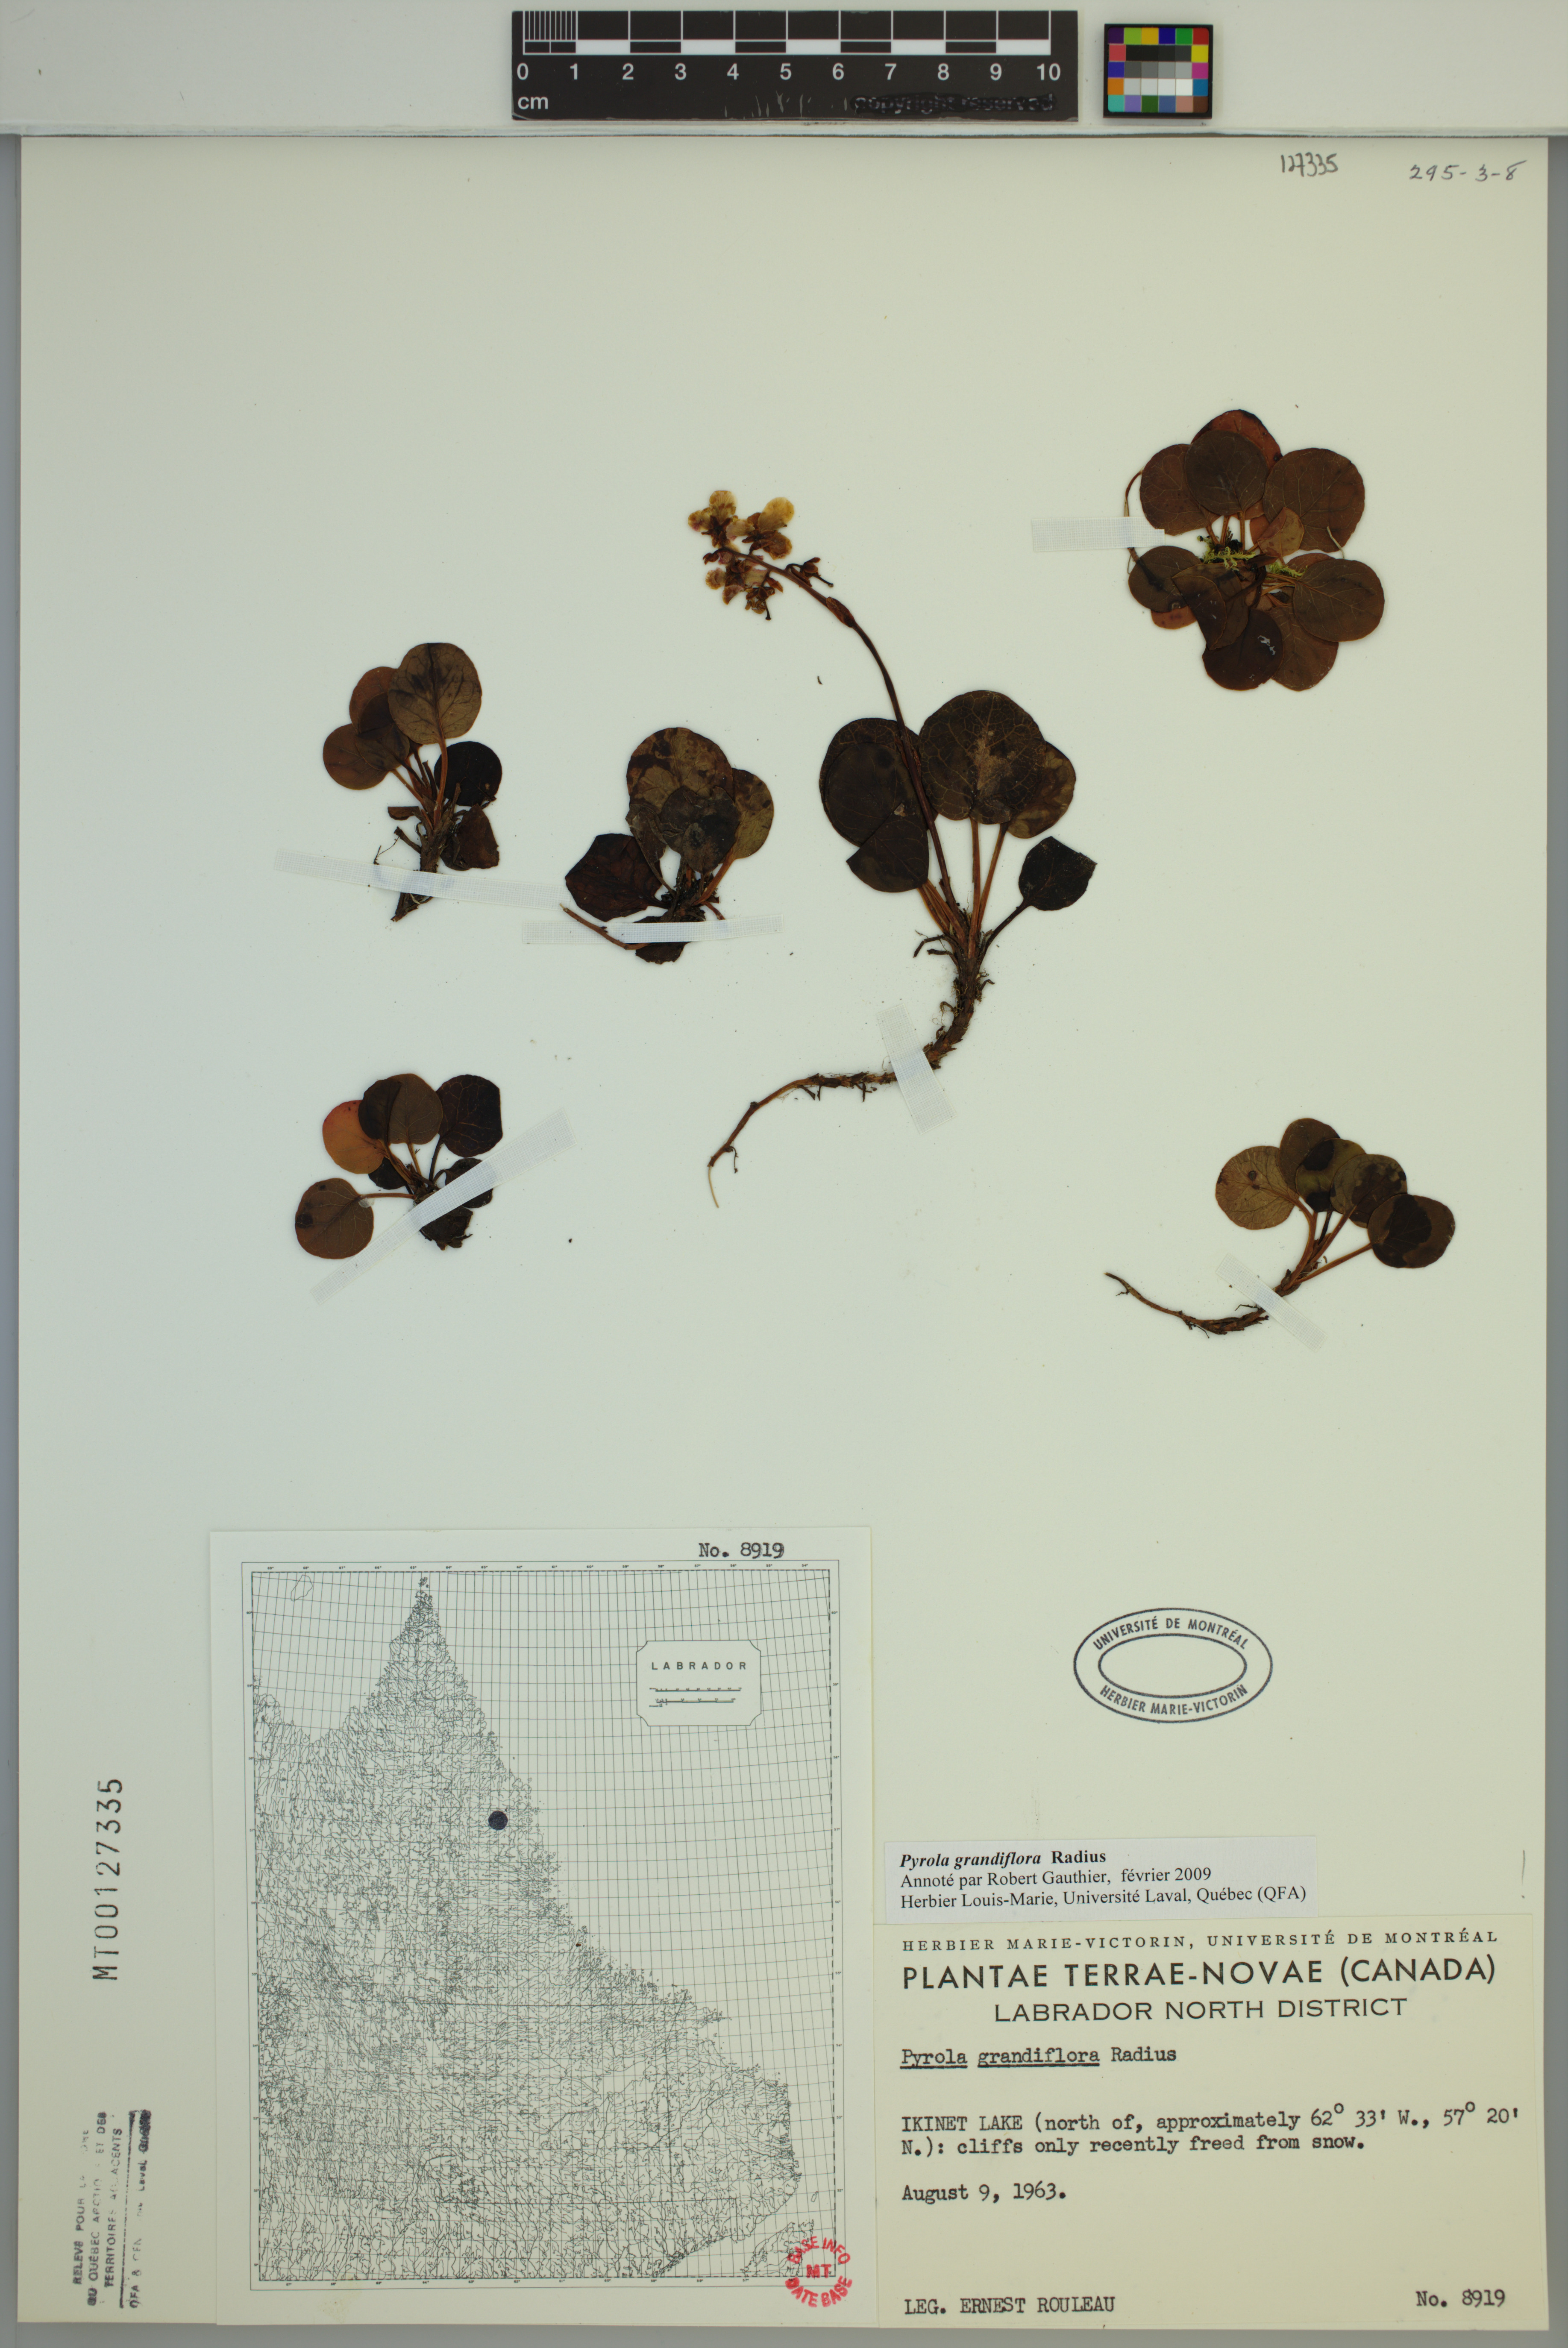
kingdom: Plantae
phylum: Tracheophyta
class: Magnoliopsida
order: Ericales
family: Ericaceae
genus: Pyrola
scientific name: Pyrola grandiflora
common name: Arctic pyrola
